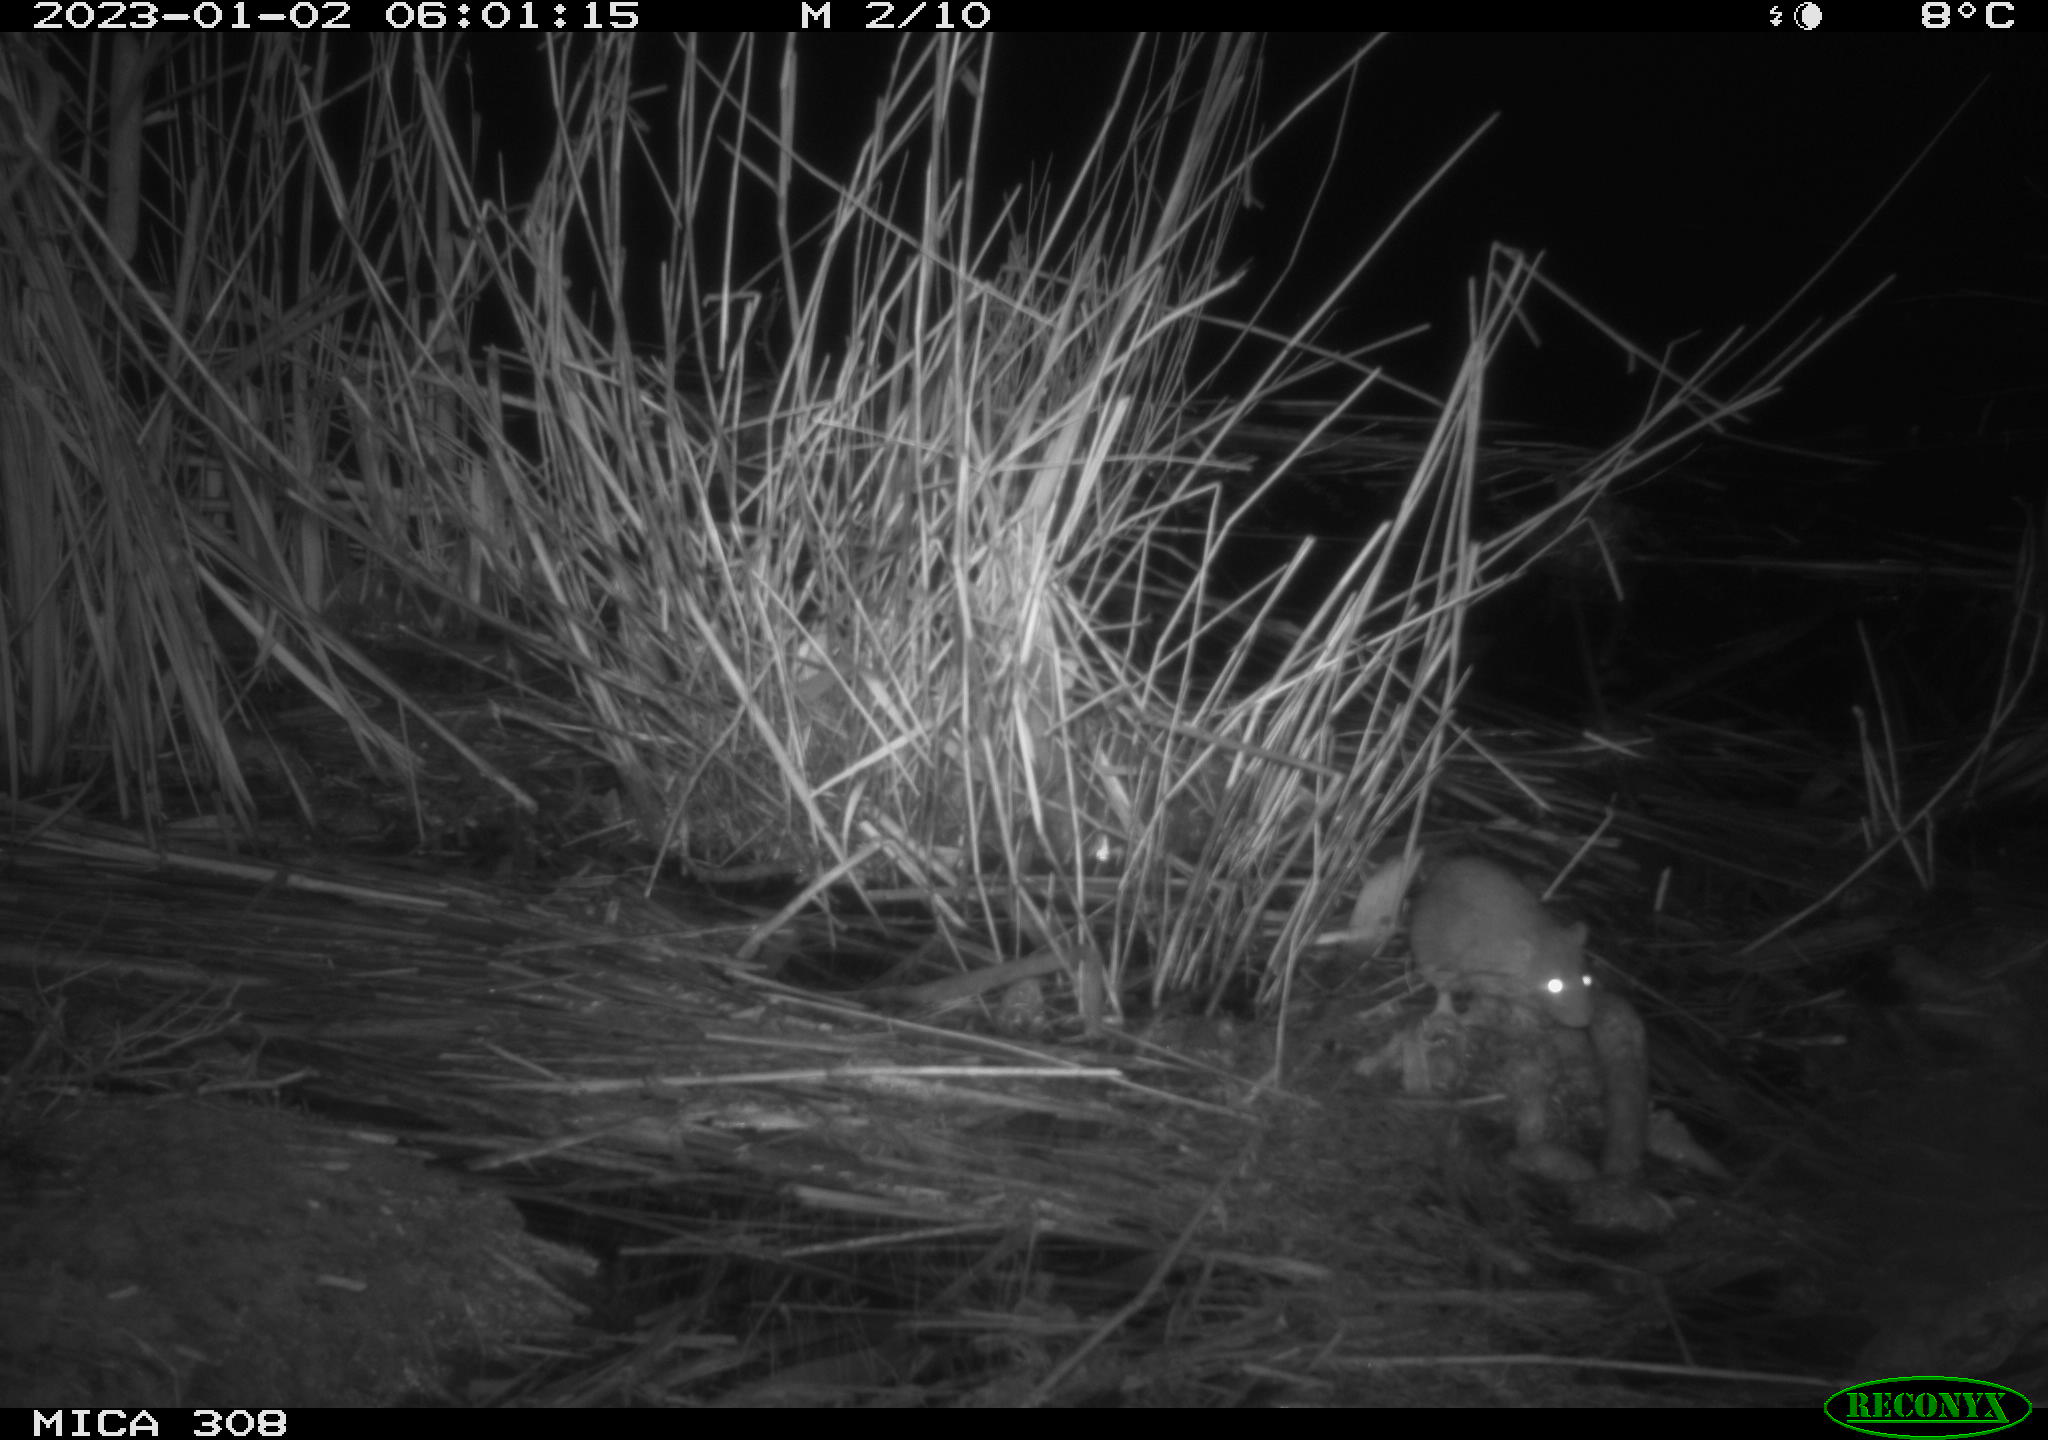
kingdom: Animalia
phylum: Chordata
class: Mammalia
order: Rodentia
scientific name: Rodentia
